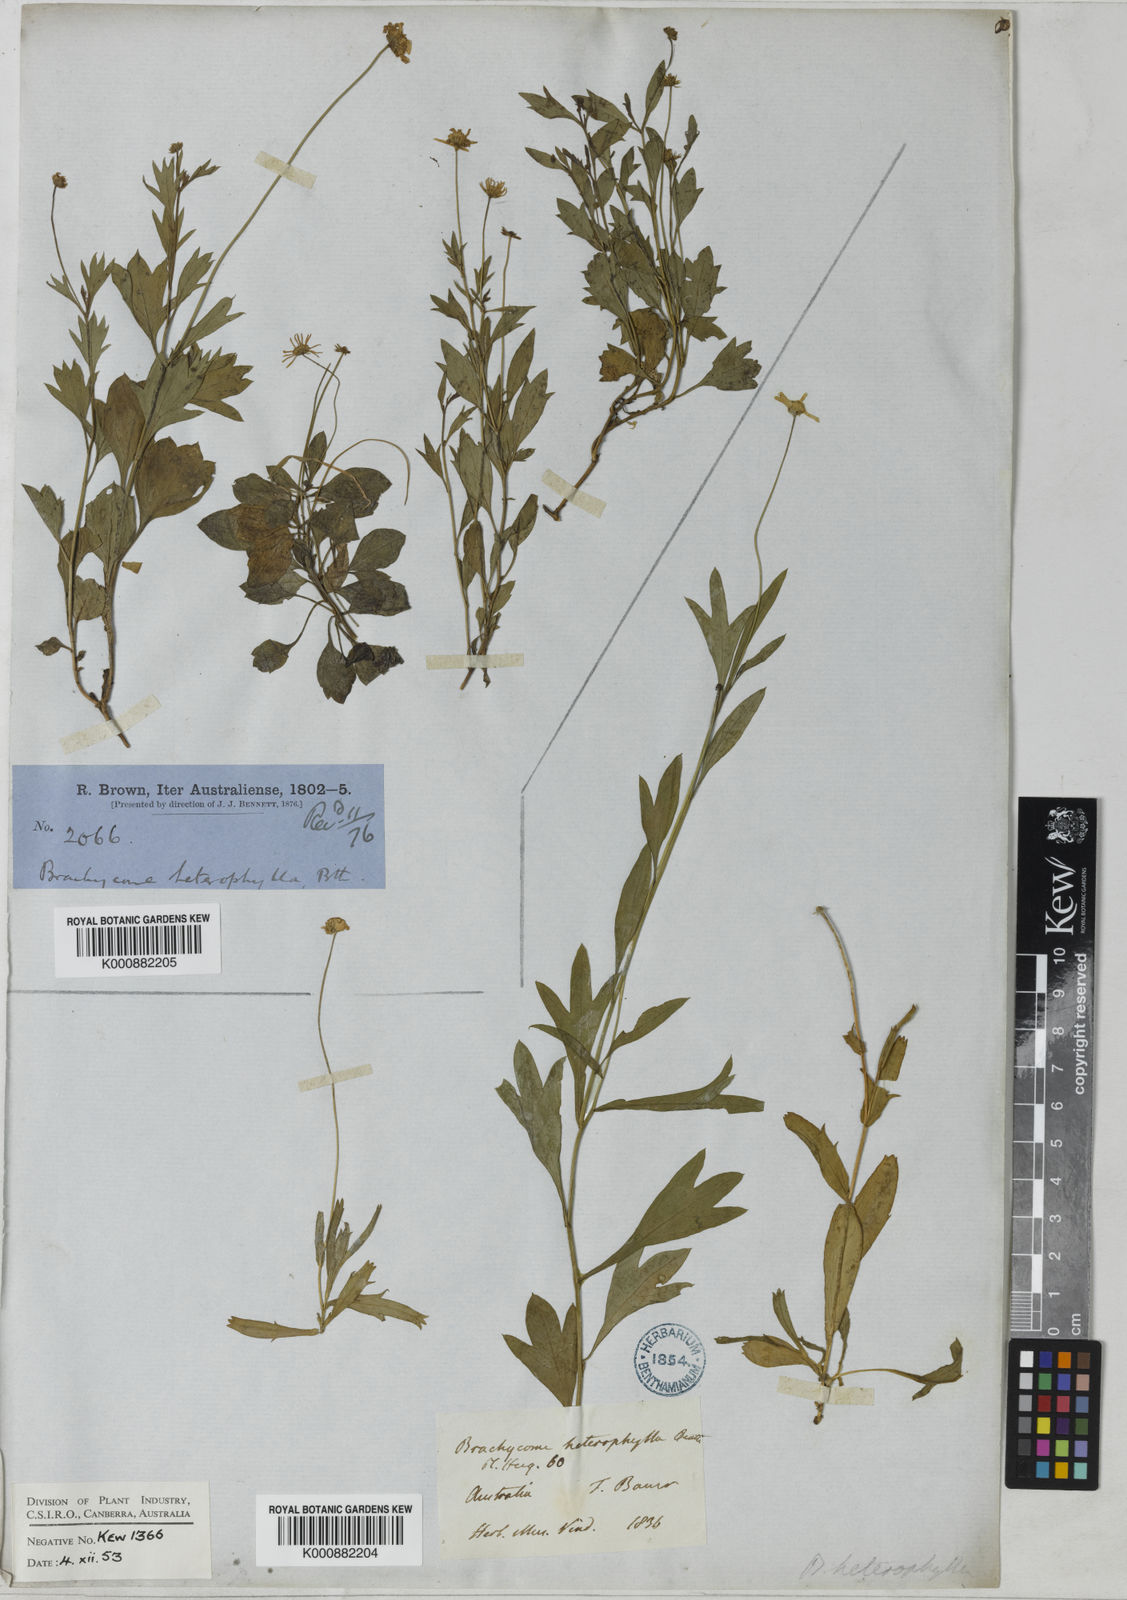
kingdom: Plantae
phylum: Tracheophyta
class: Magnoliopsida
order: Asterales
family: Asteraceae
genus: Vittadinia
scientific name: Vittadinia triloba
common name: Fuzzweed
